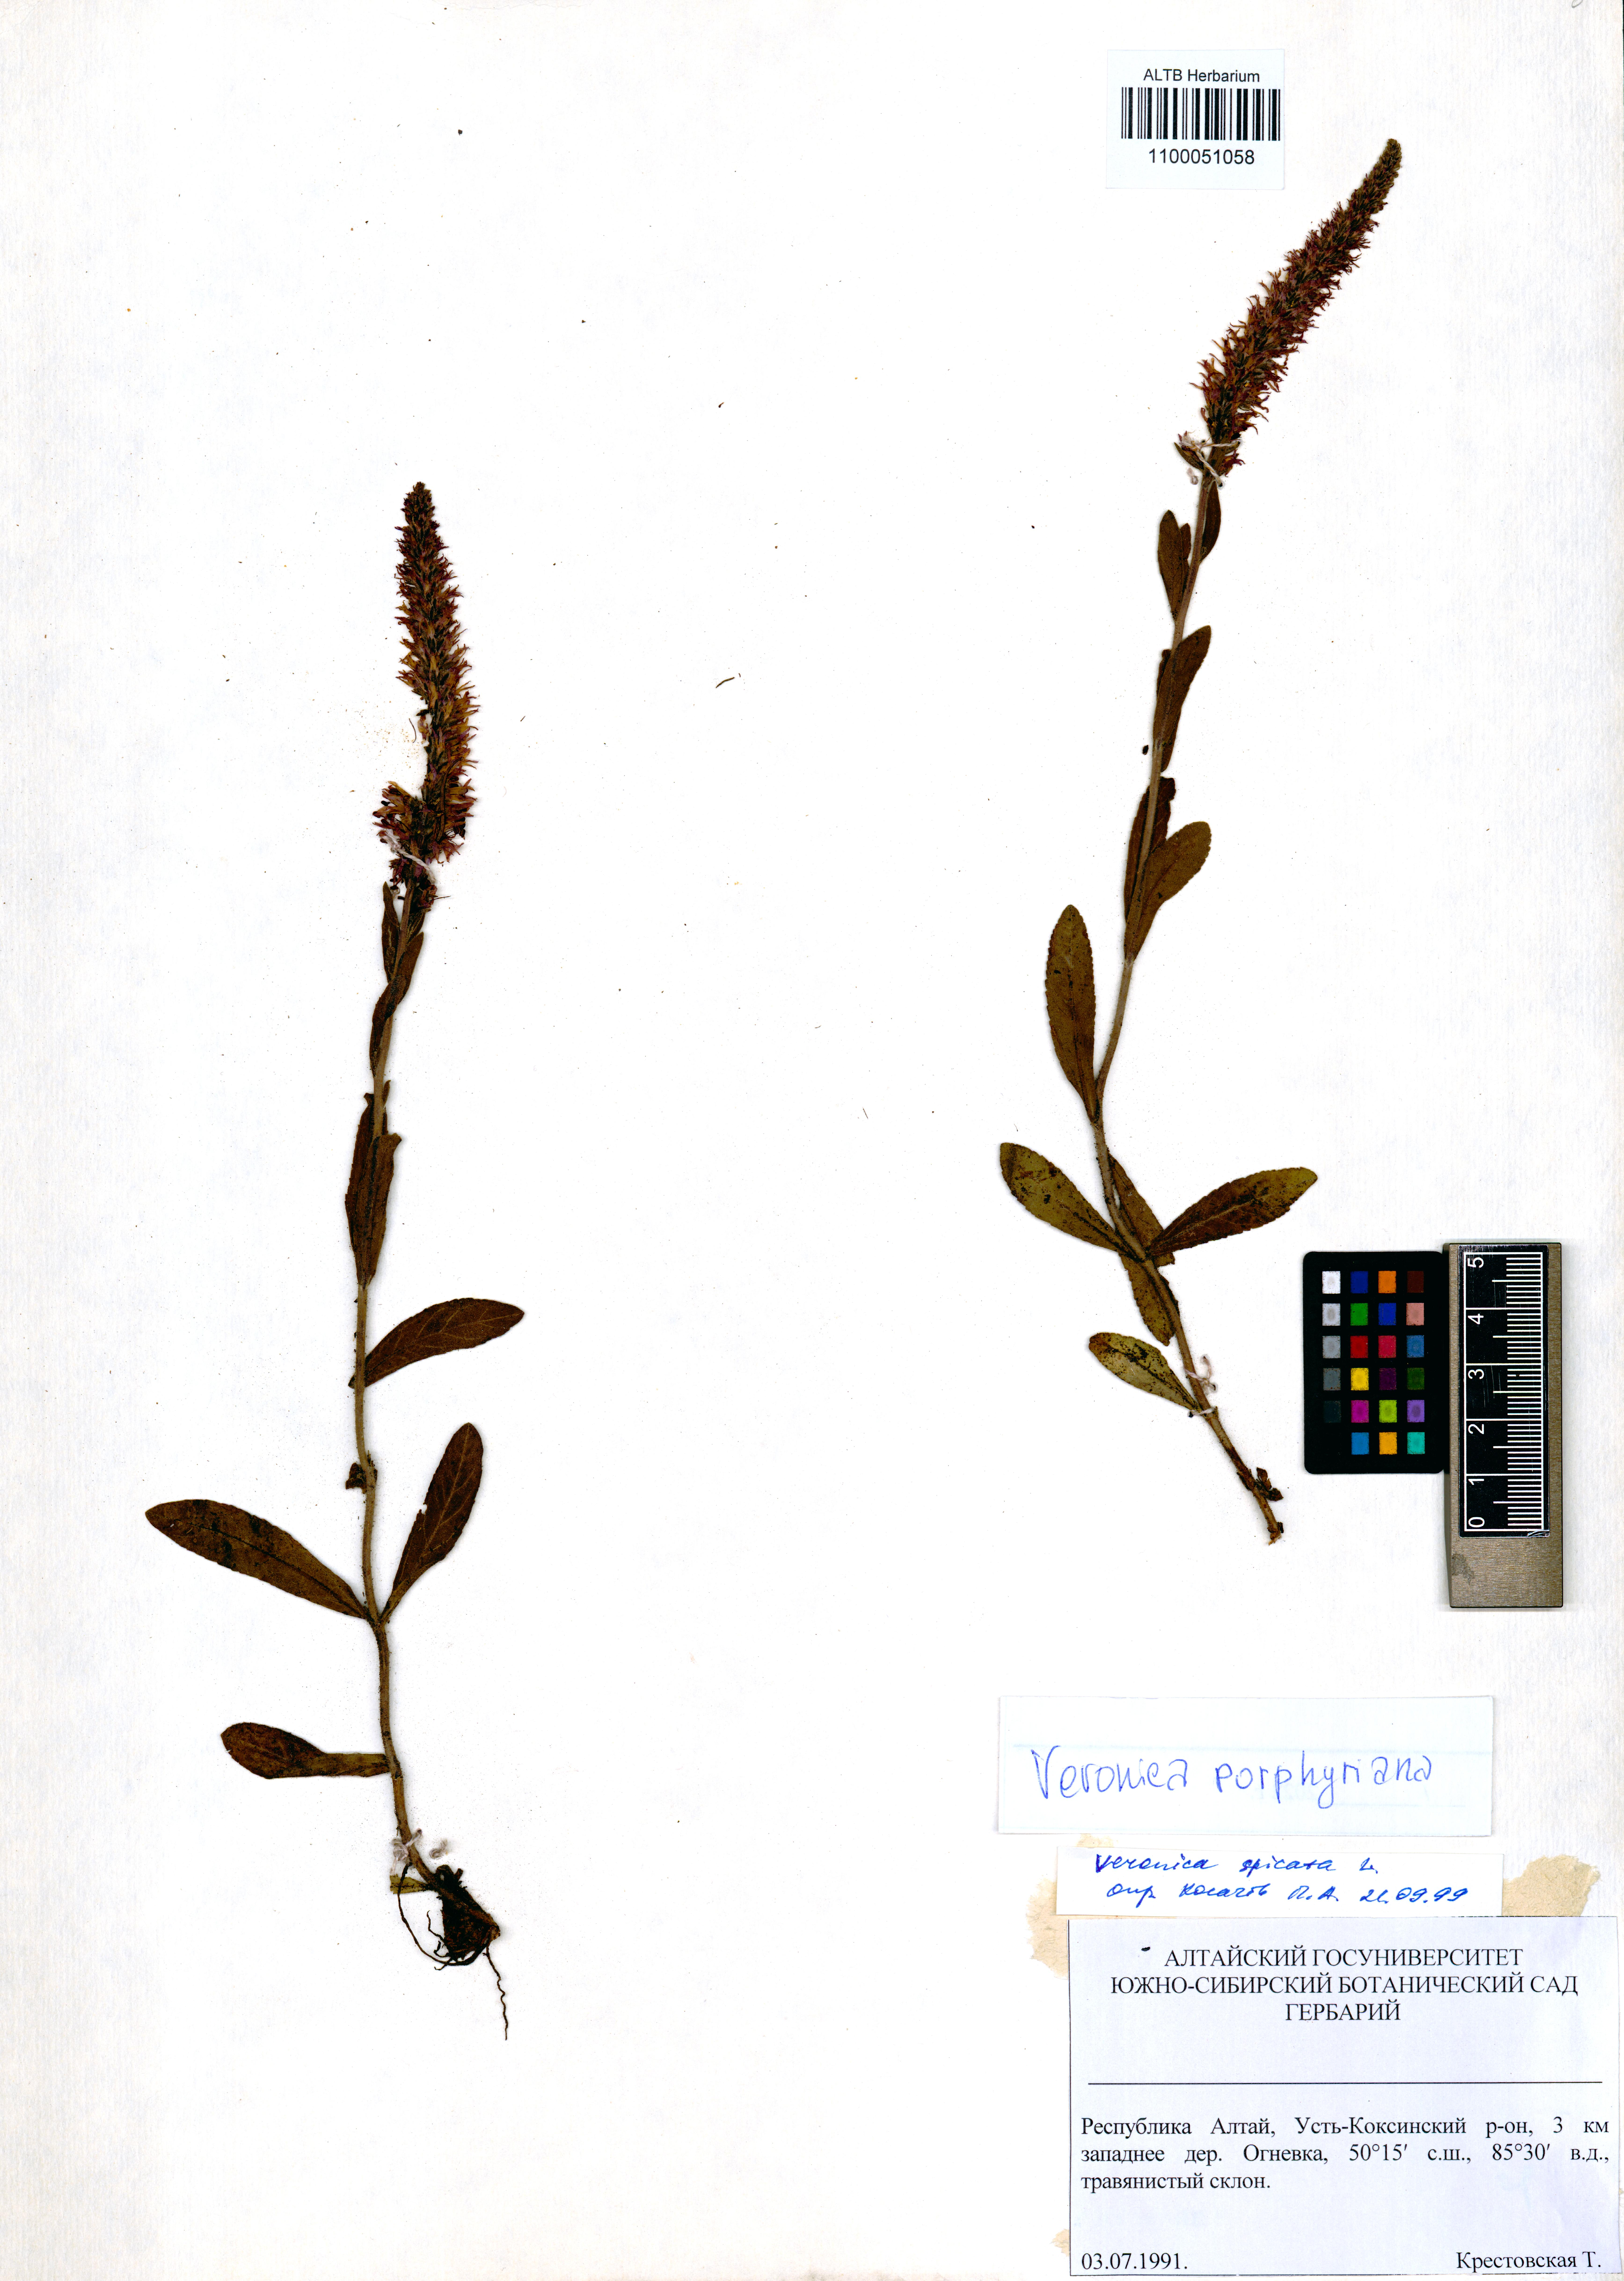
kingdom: Plantae
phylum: Tracheophyta
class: Magnoliopsida
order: Lamiales
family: Plantaginaceae
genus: Veronica
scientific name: Veronica spicata
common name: Spiked speedwell
